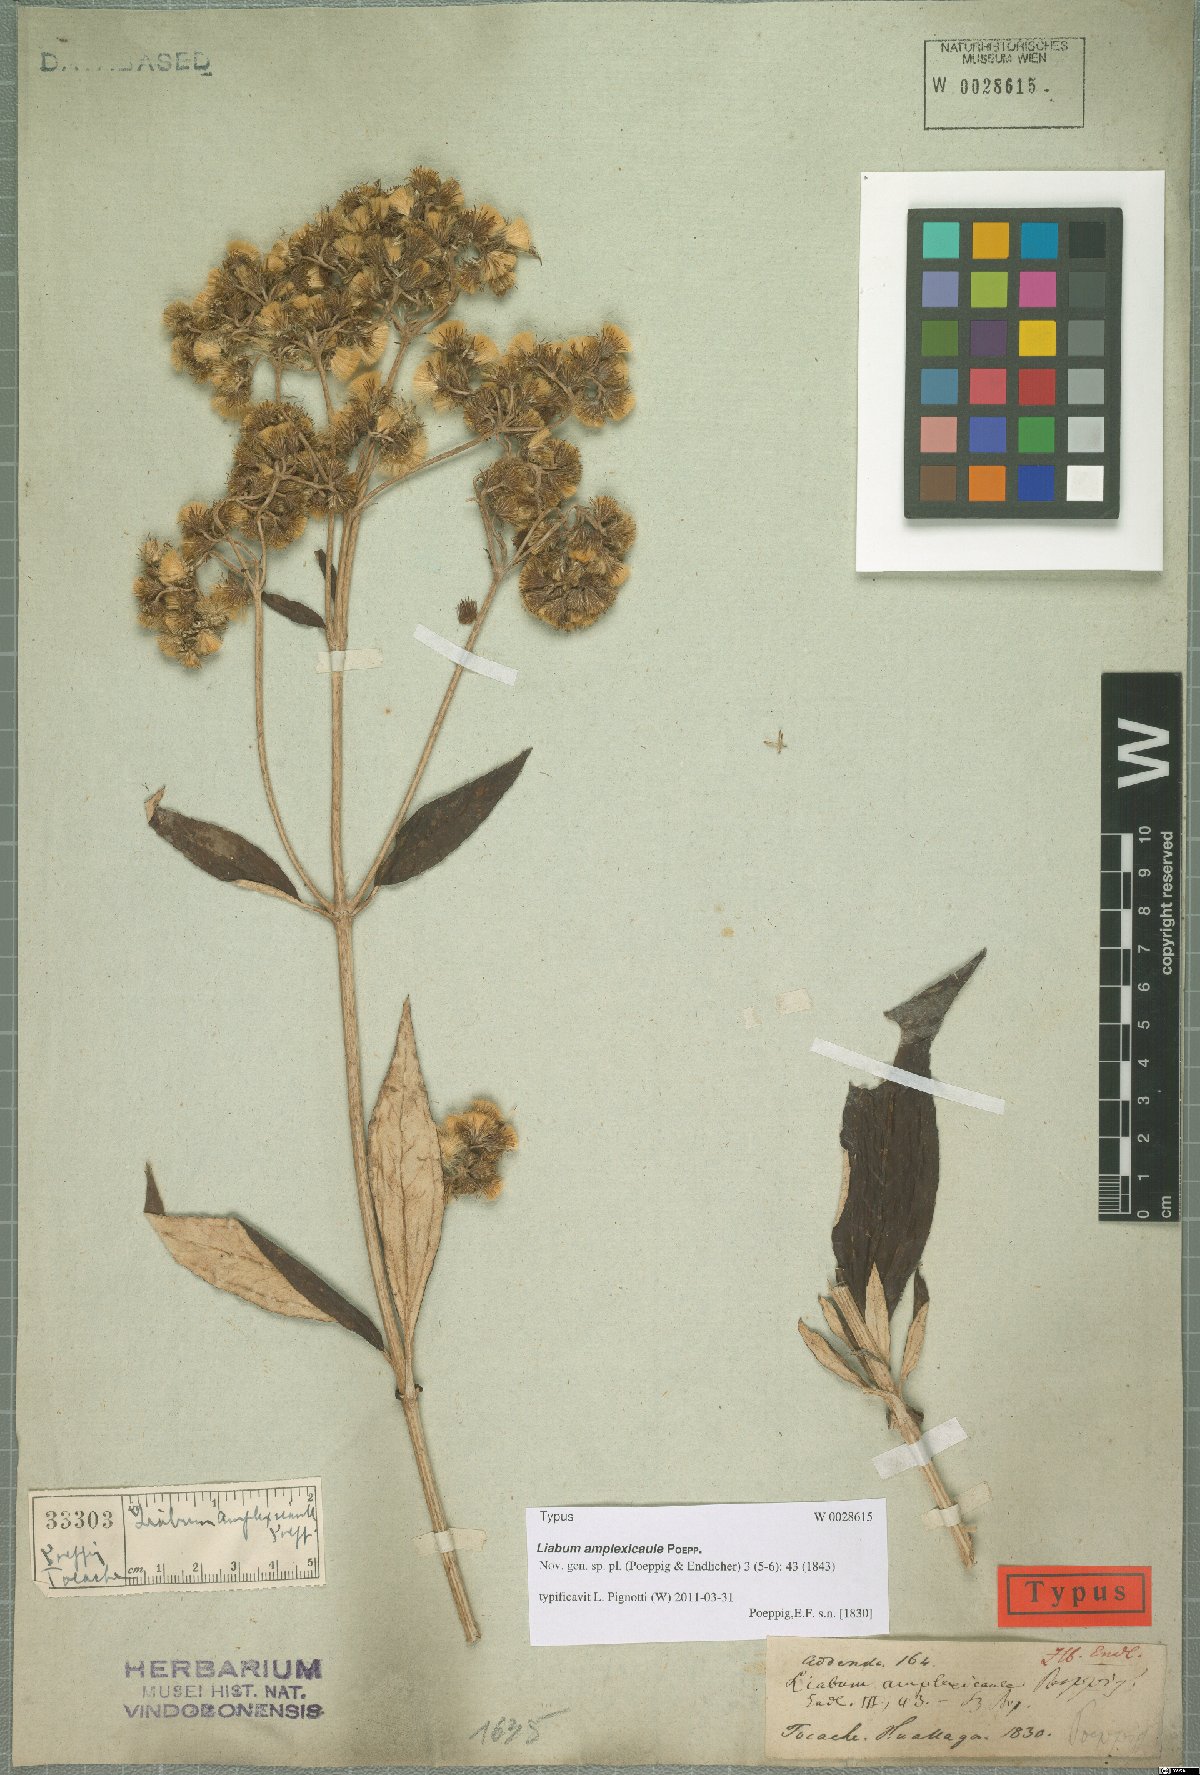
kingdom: Plantae
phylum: Tracheophyta
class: Magnoliopsida
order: Asterales
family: Asteraceae
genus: Liabum
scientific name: Liabum amplexicaule
